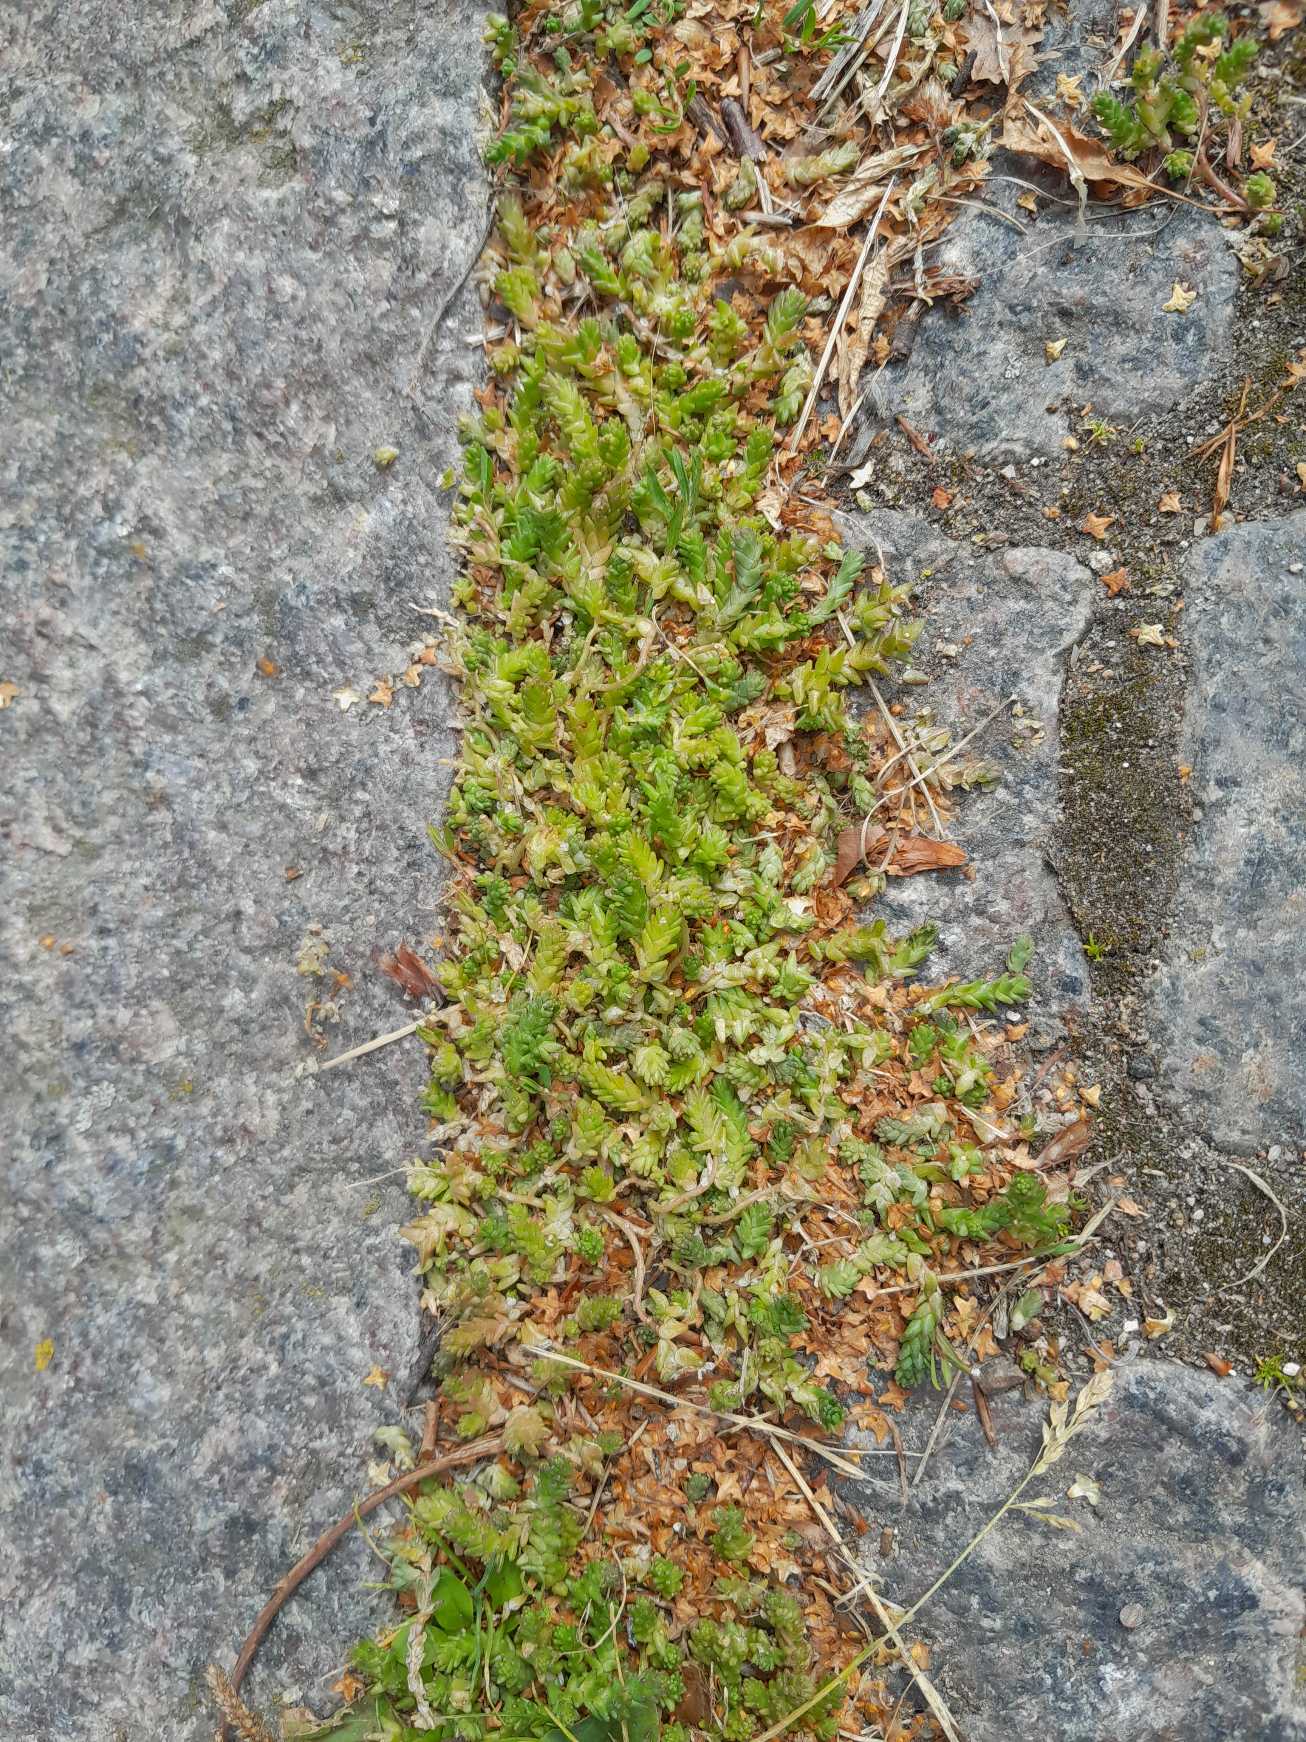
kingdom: Plantae
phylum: Tracheophyta
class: Magnoliopsida
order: Saxifragales
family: Crassulaceae
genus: Sedum
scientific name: Sedum acre
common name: Bidende stenurt
